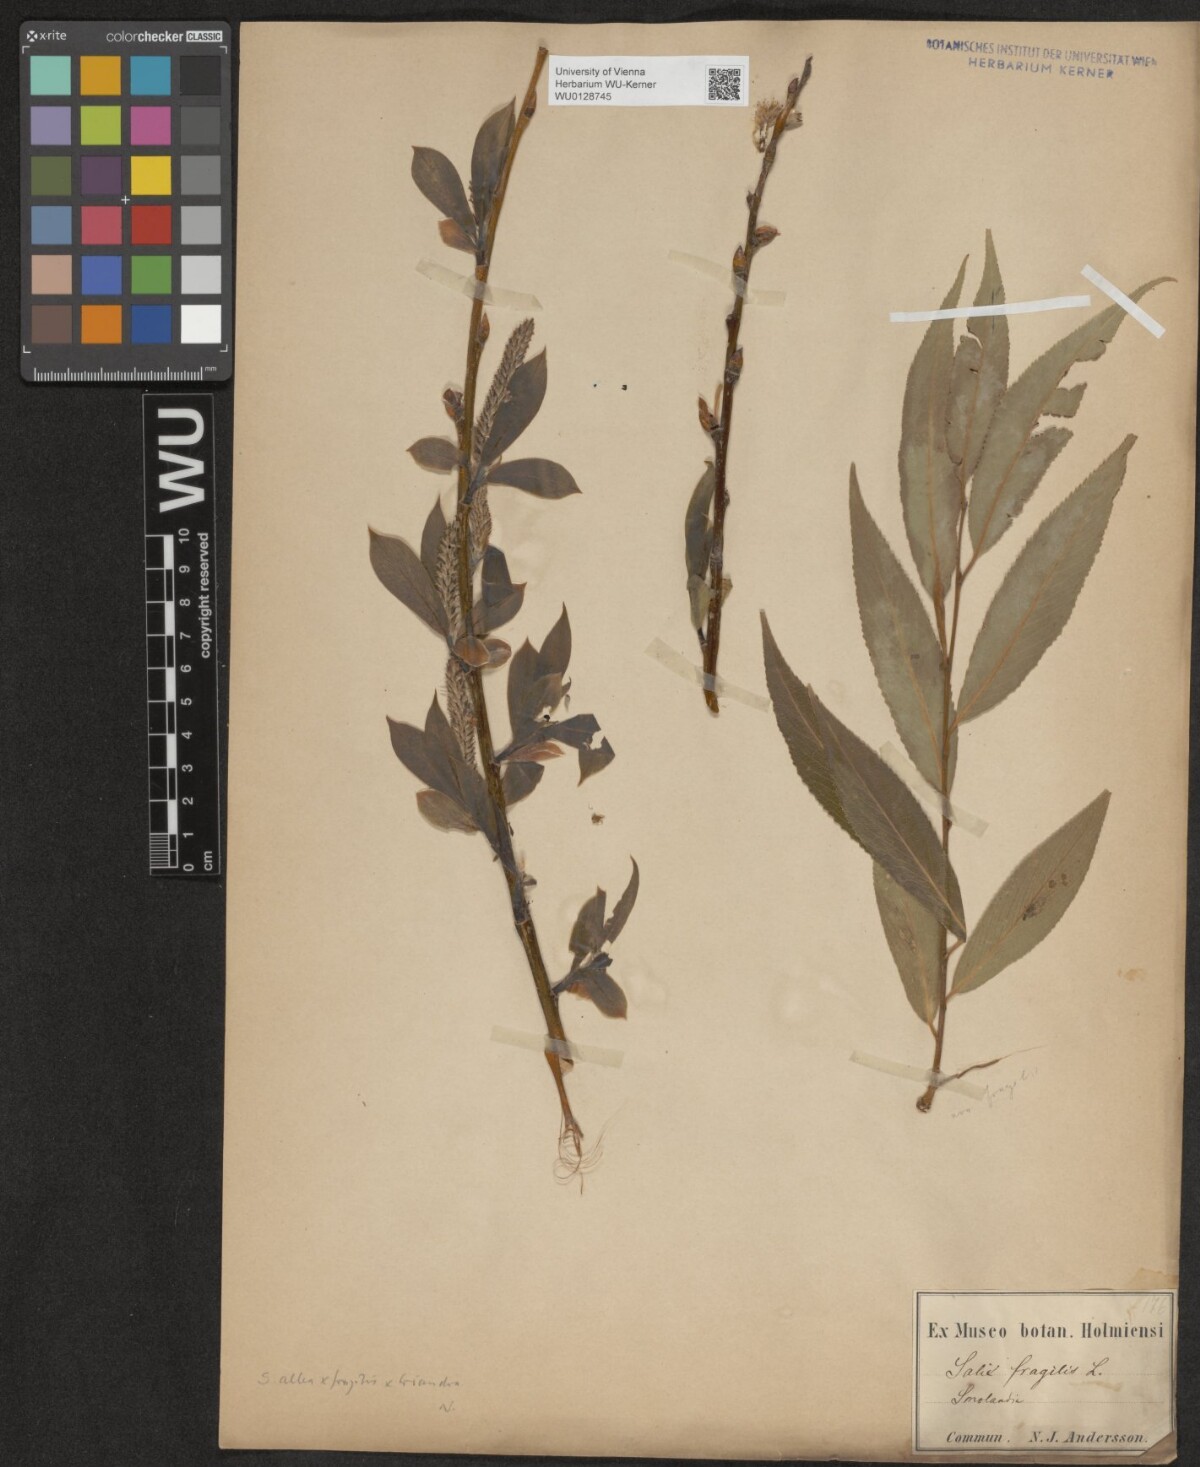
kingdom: Plantae
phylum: Tracheophyta
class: Magnoliopsida
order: Malpighiales
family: Salicaceae
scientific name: Salicaceae
